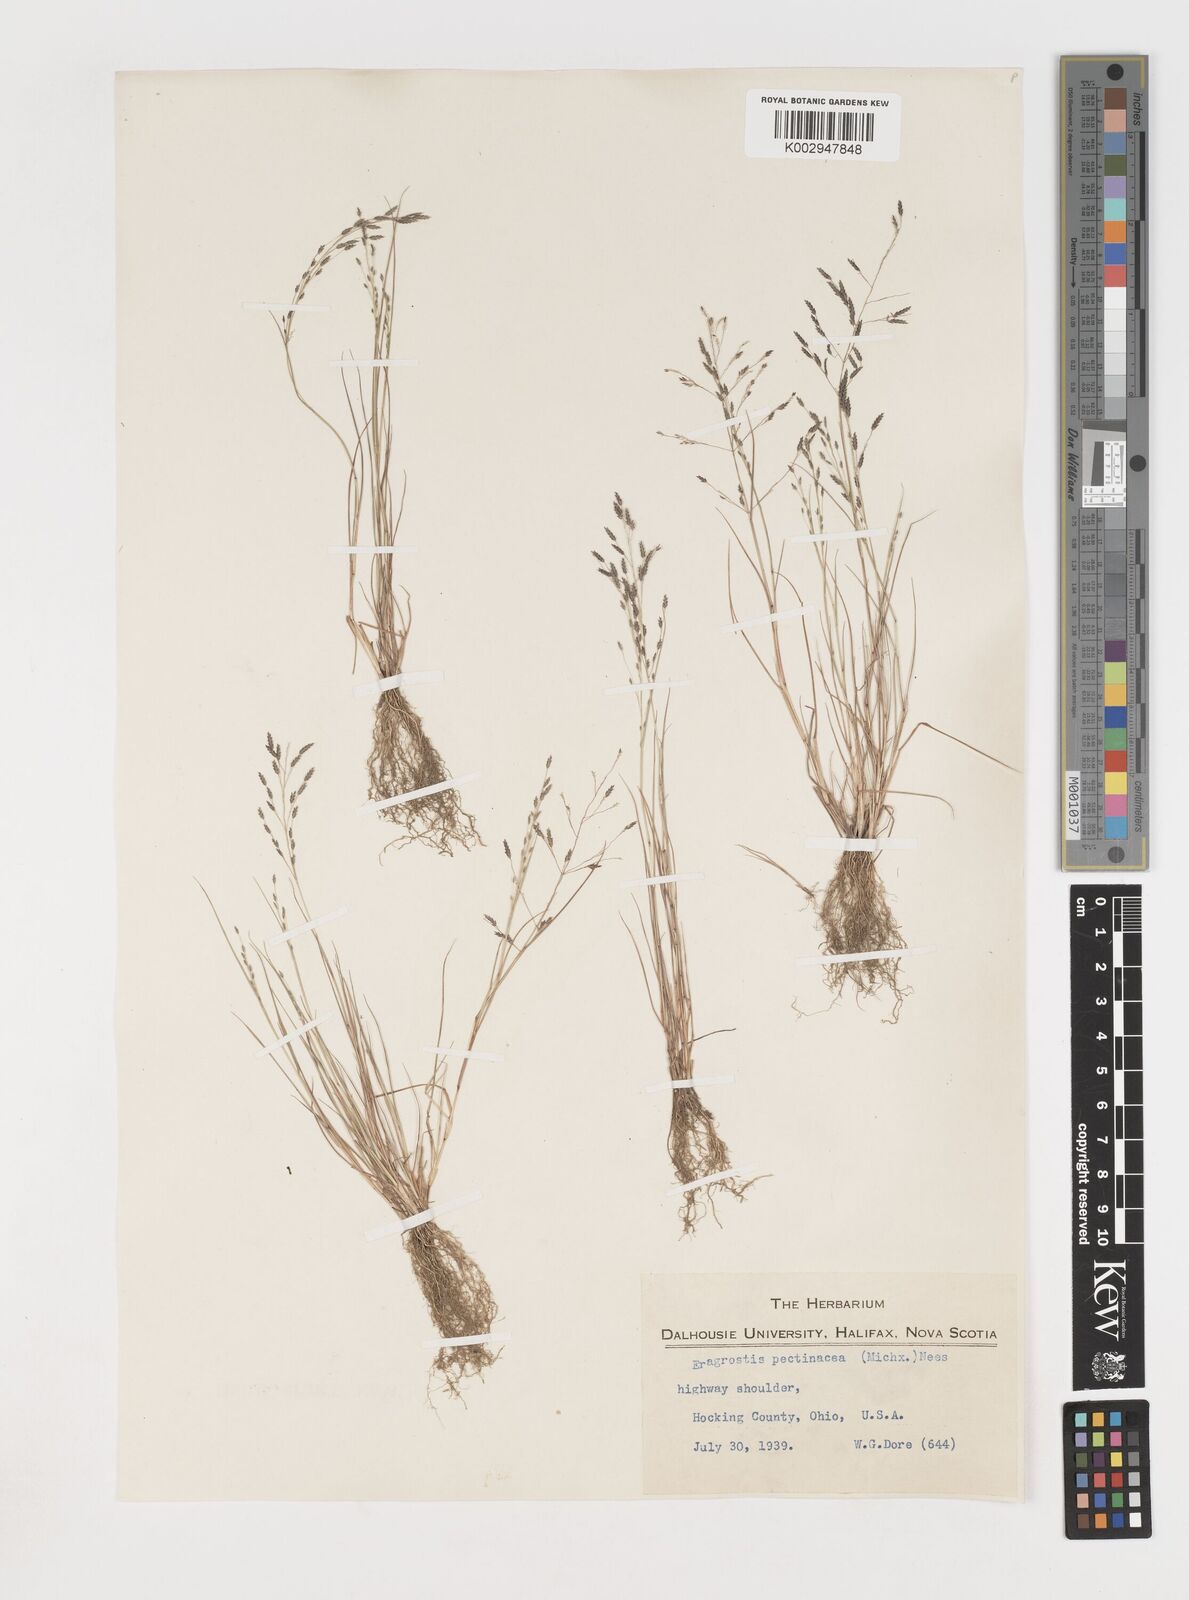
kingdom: Plantae
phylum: Tracheophyta
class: Liliopsida
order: Poales
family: Poaceae
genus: Eragrostis
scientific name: Eragrostis pectinacea
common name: Tufted lovegrass
